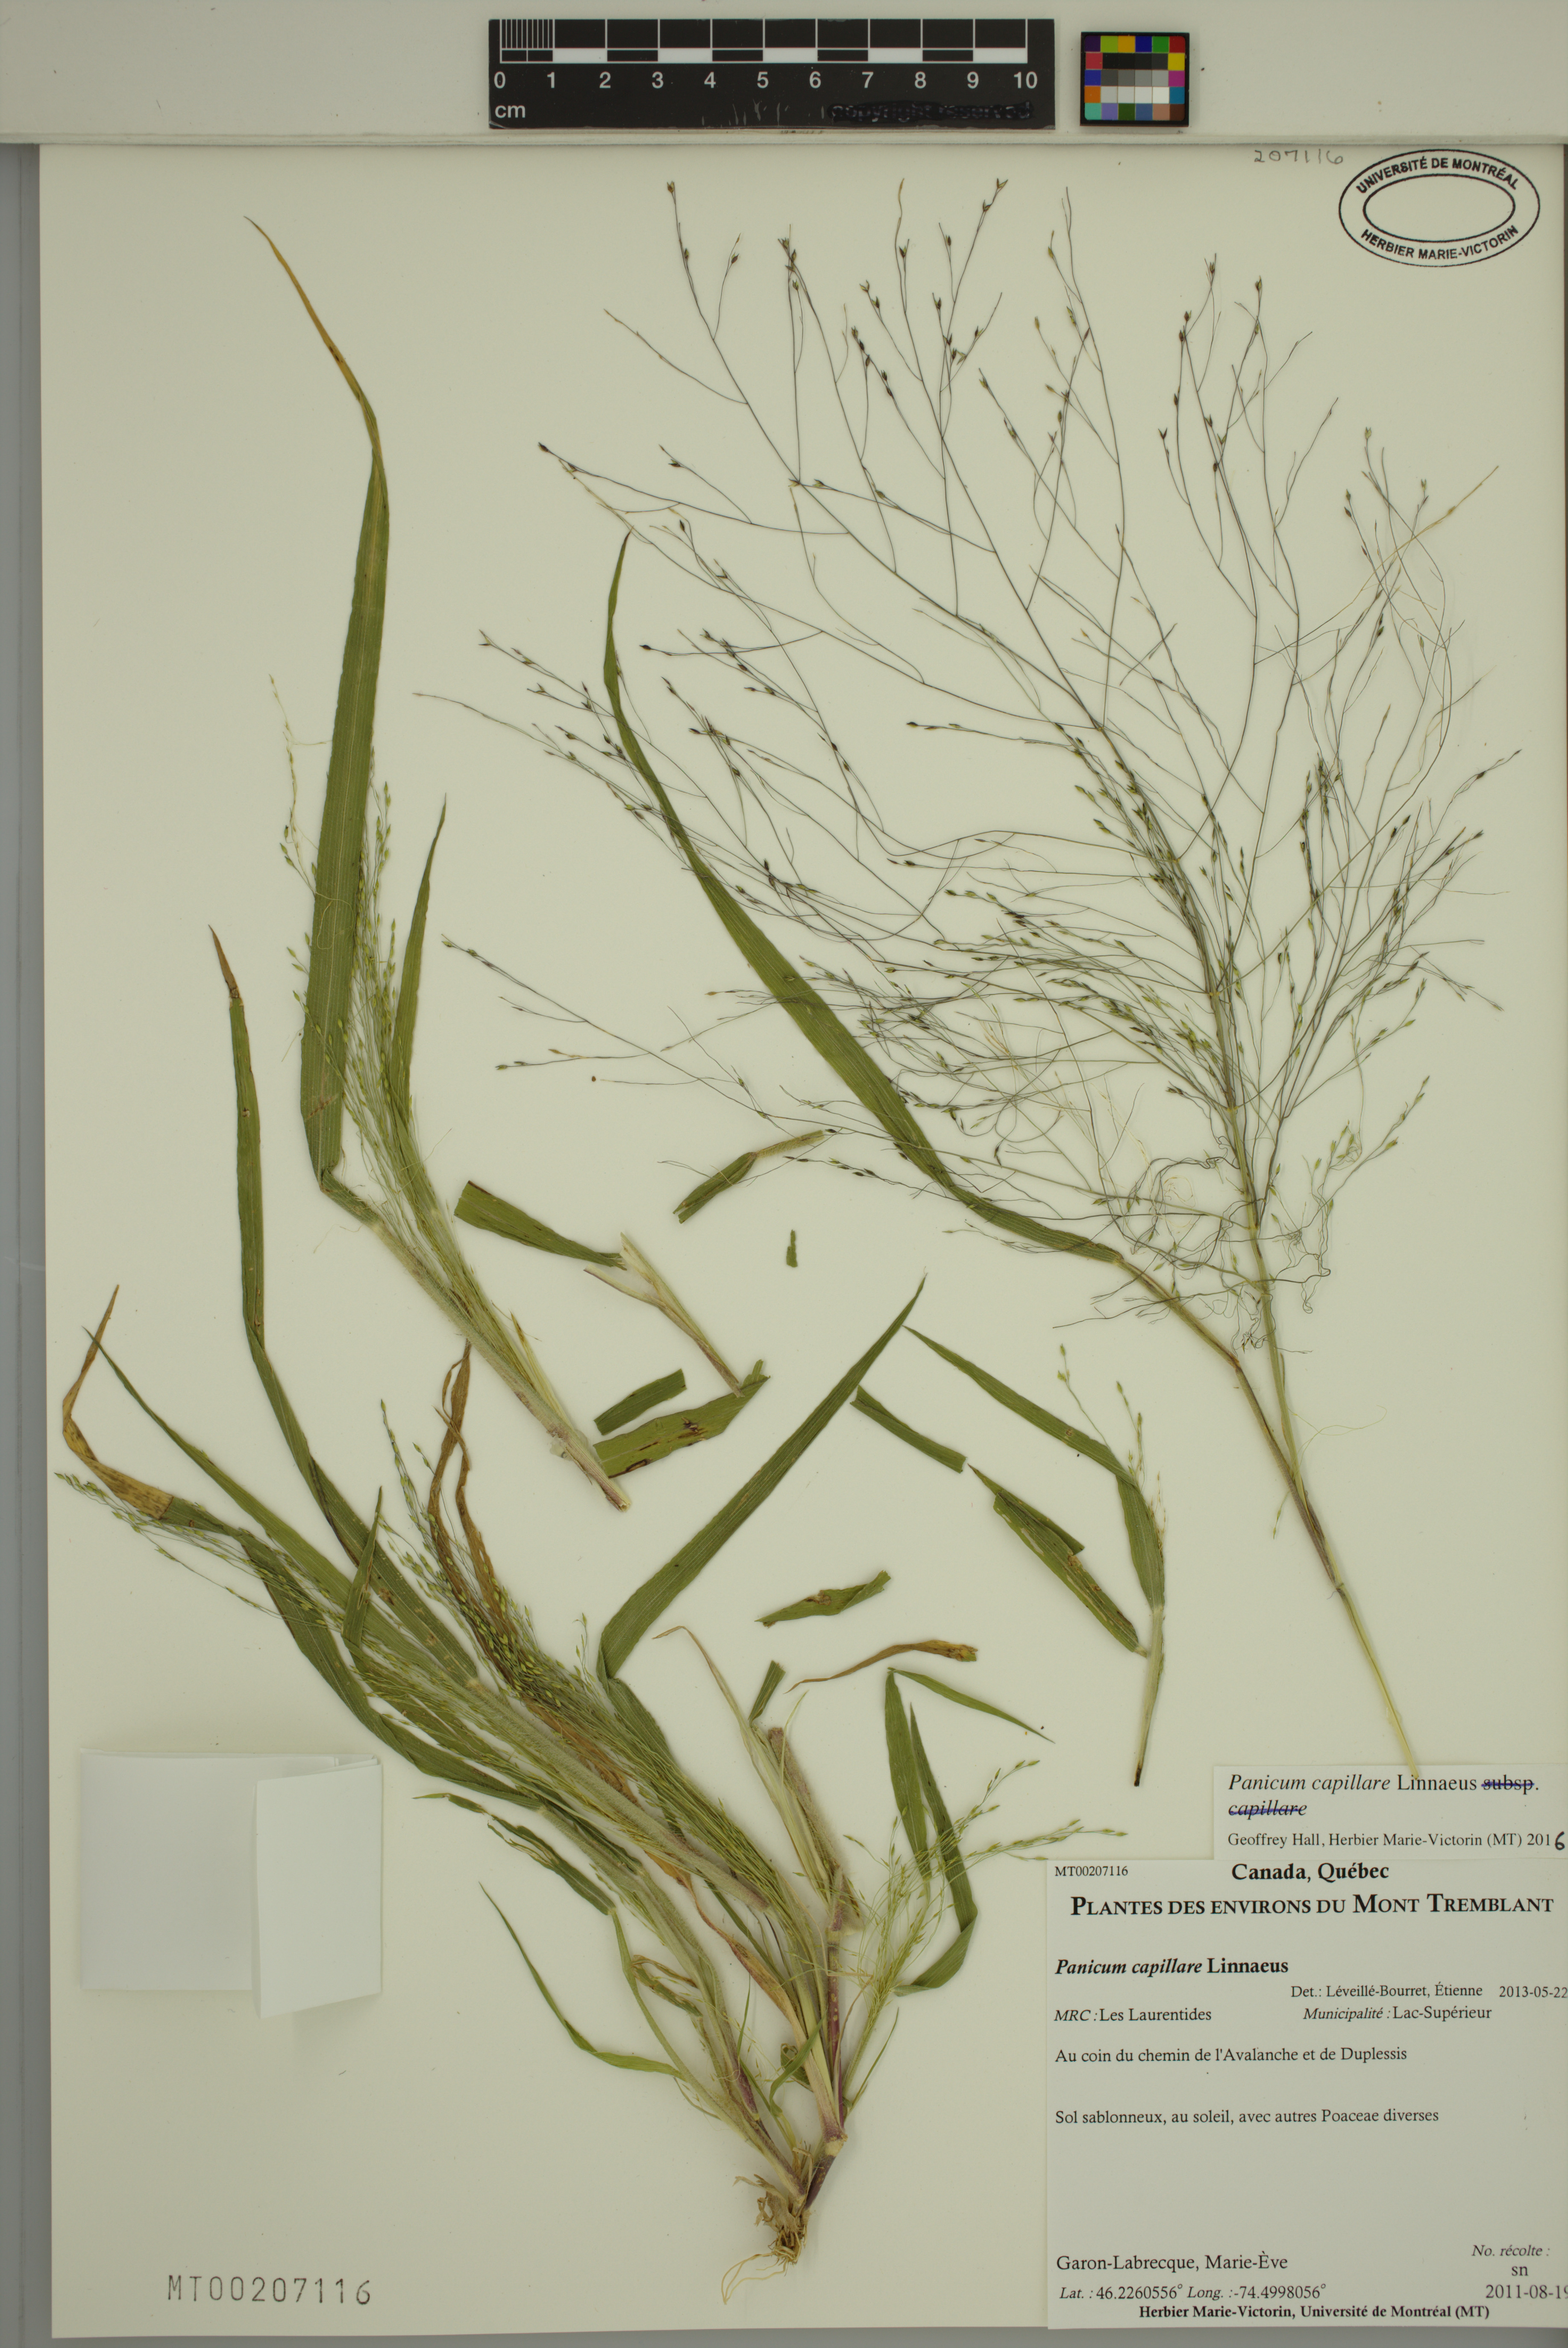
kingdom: Plantae
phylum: Tracheophyta
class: Liliopsida
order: Poales
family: Poaceae
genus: Panicum
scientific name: Panicum capillare
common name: Witch-grass
